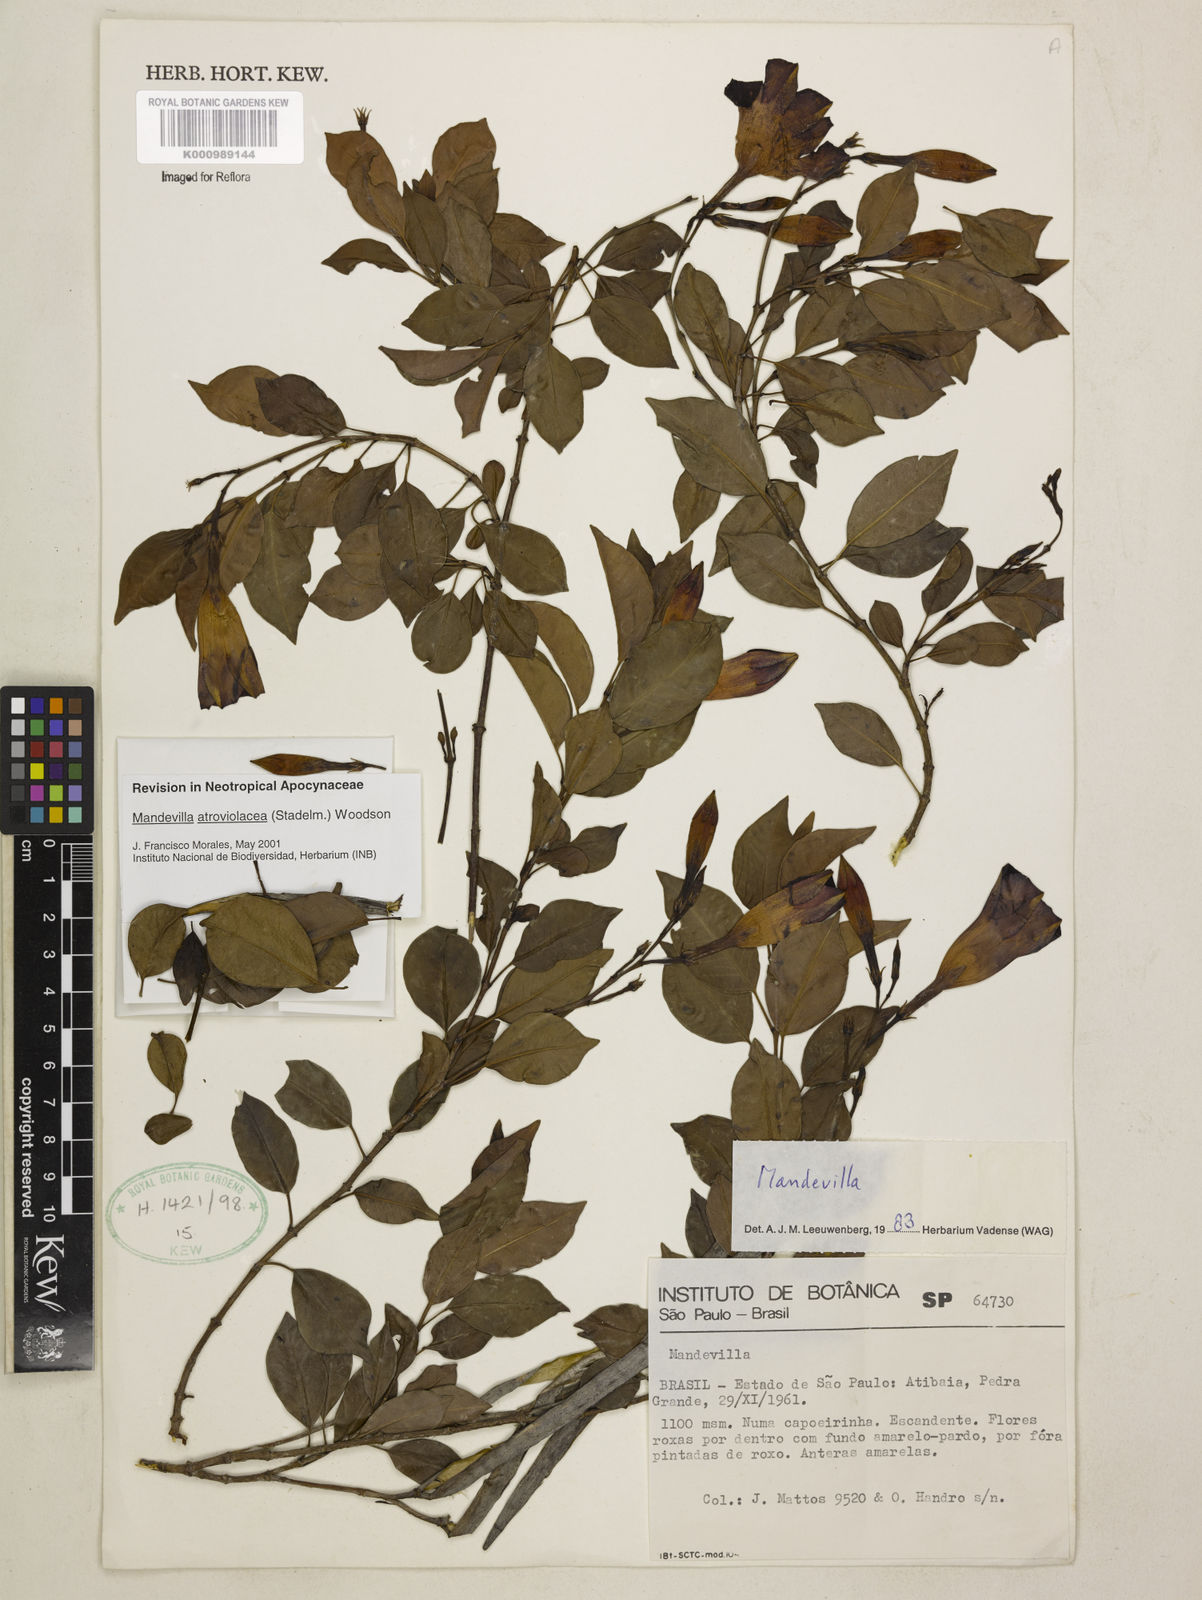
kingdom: Plantae
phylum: Tracheophyta
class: Magnoliopsida
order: Gentianales
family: Apocynaceae
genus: Mandevilla
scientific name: Mandevilla atroviolacea
